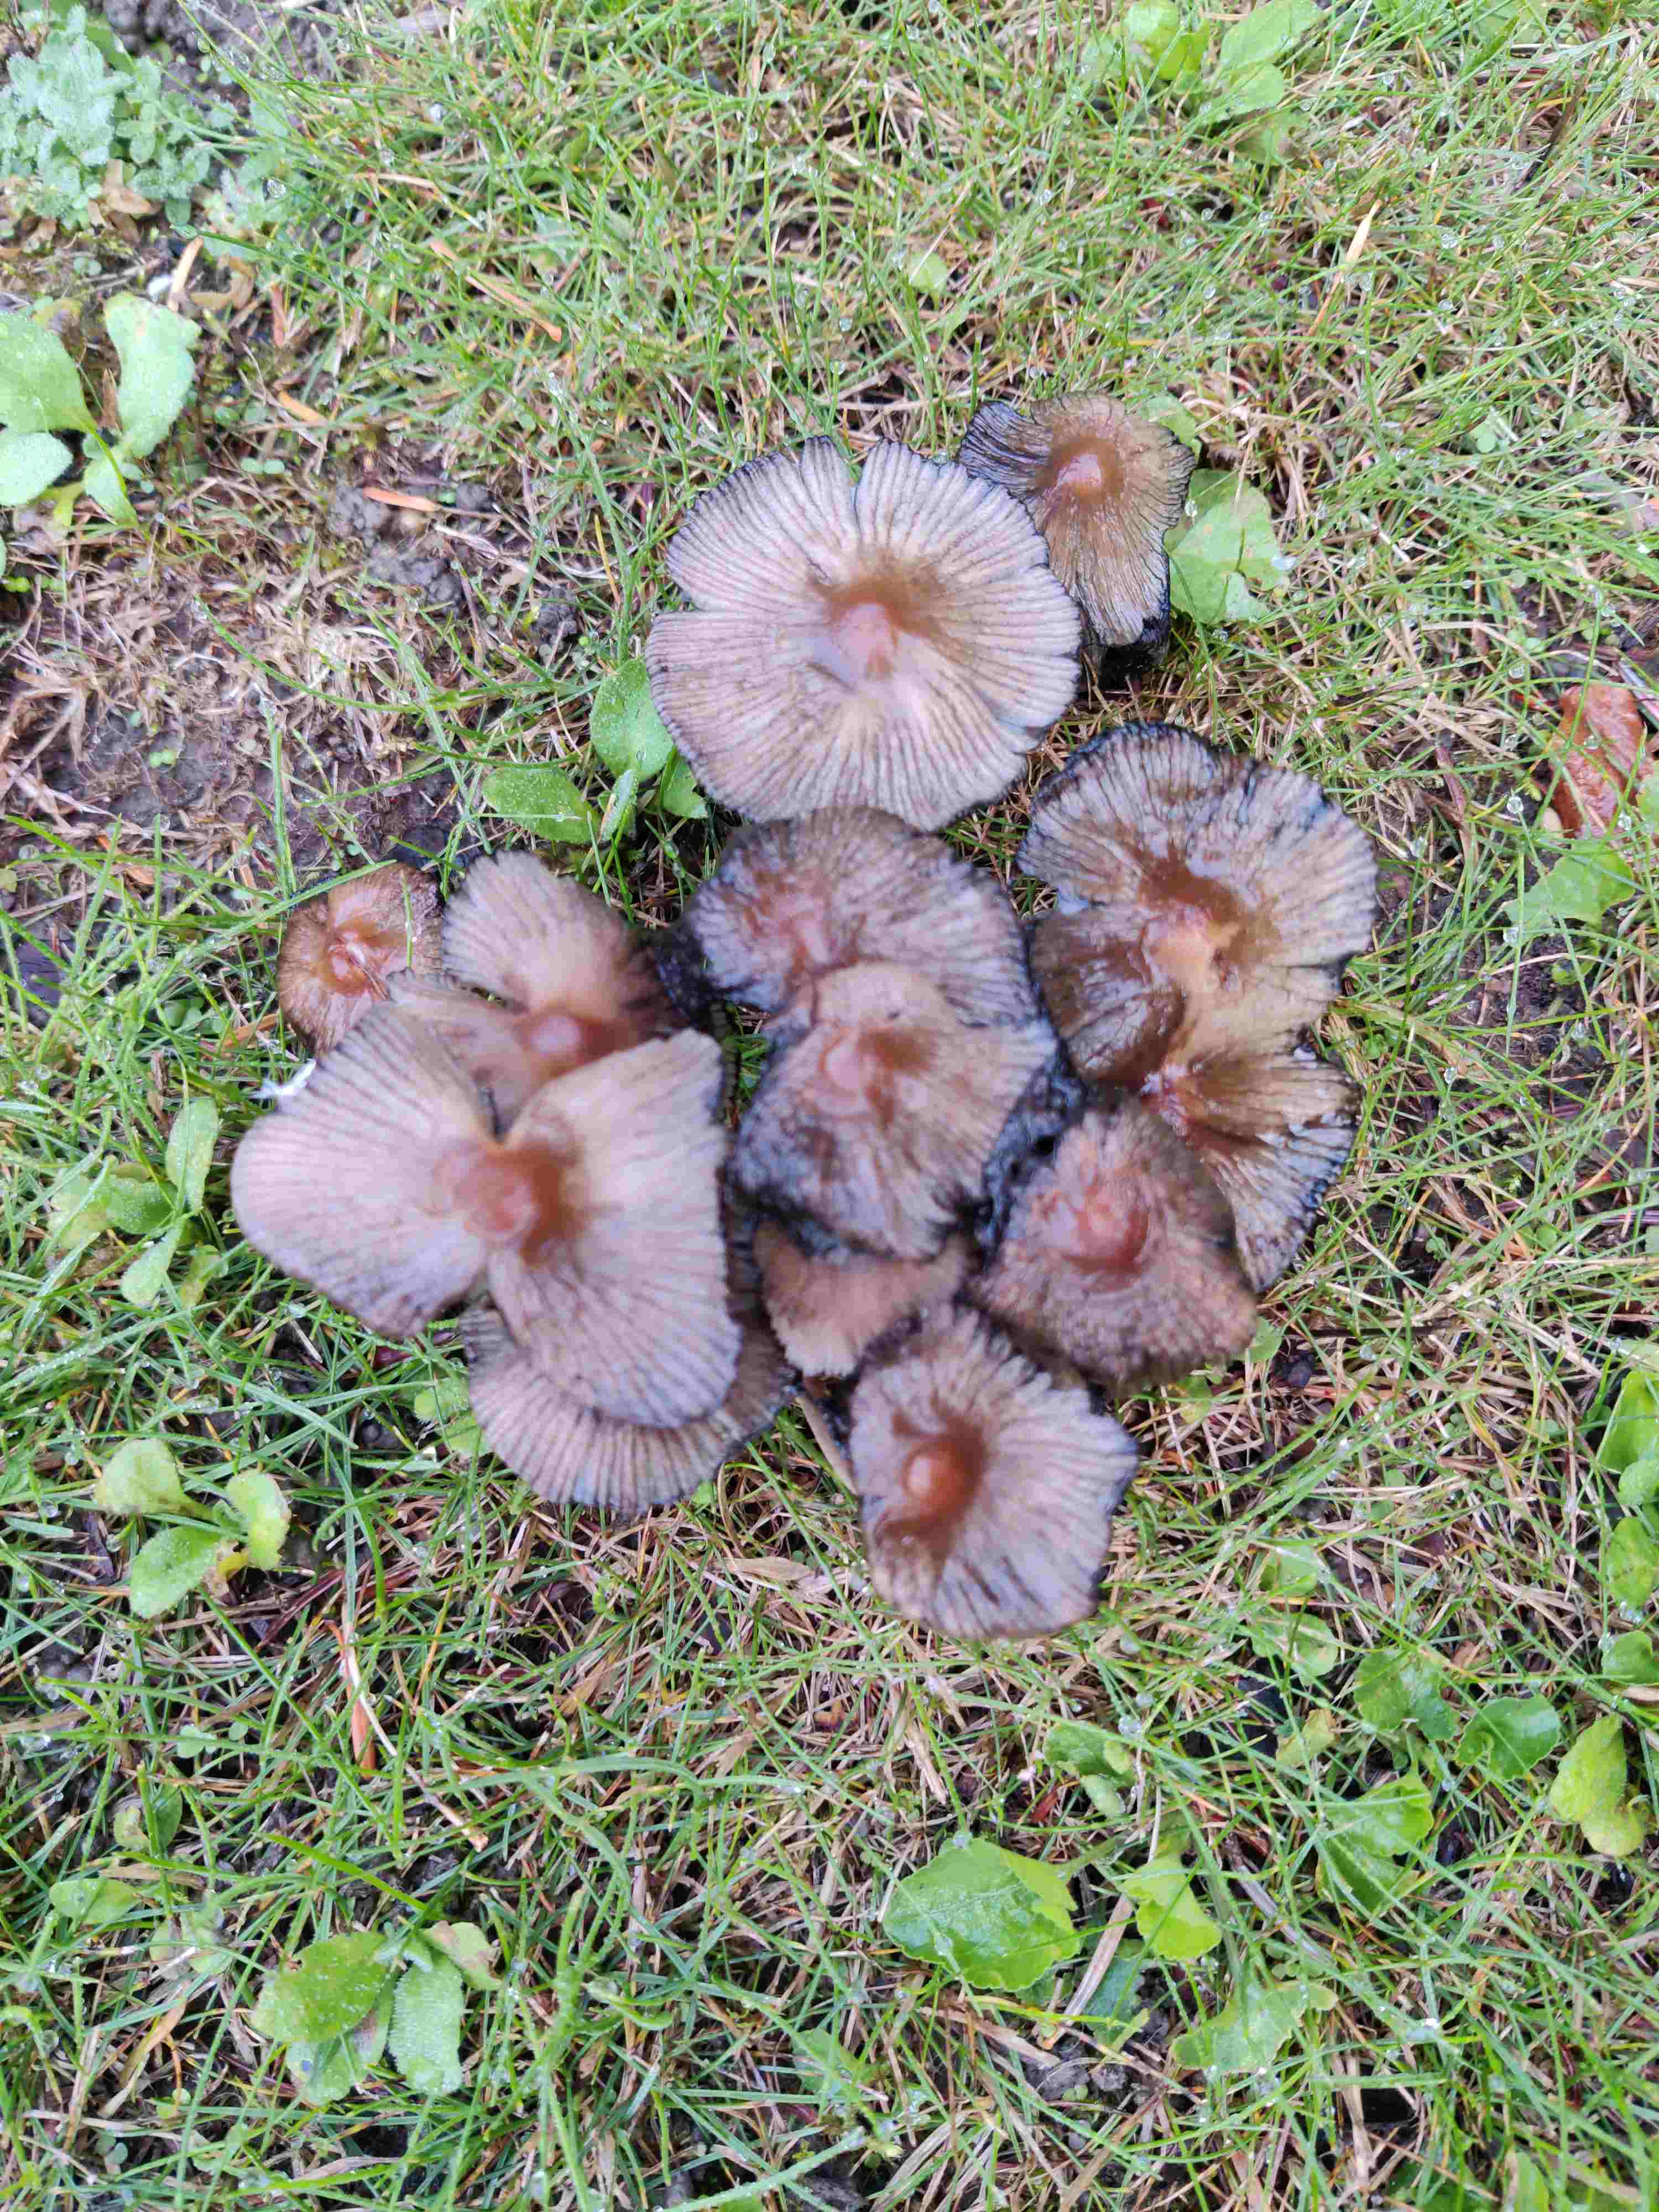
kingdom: Fungi
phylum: Basidiomycota
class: Agaricomycetes
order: Agaricales
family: Psathyrellaceae
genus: Coprinellus
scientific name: Coprinellus
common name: blækhat
